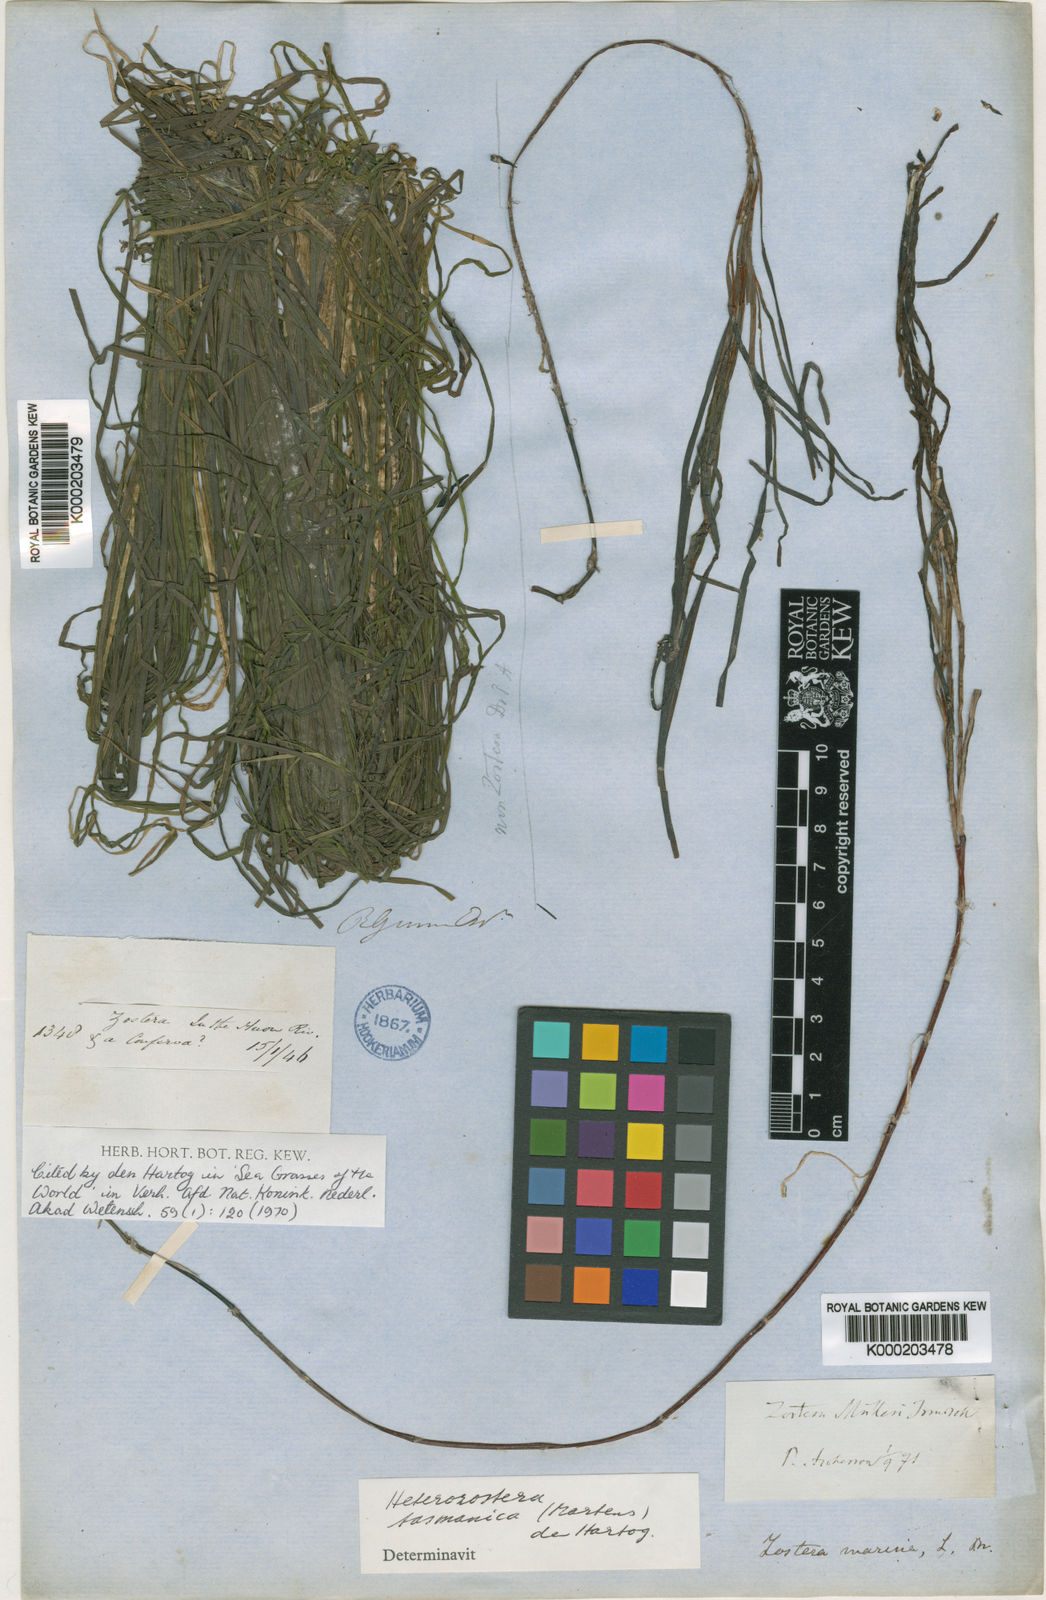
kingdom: Plantae
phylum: Tracheophyta
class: Liliopsida
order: Alismatales
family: Zosteraceae
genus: Zostera
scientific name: Zostera nigricaulis
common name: Species code: zg
